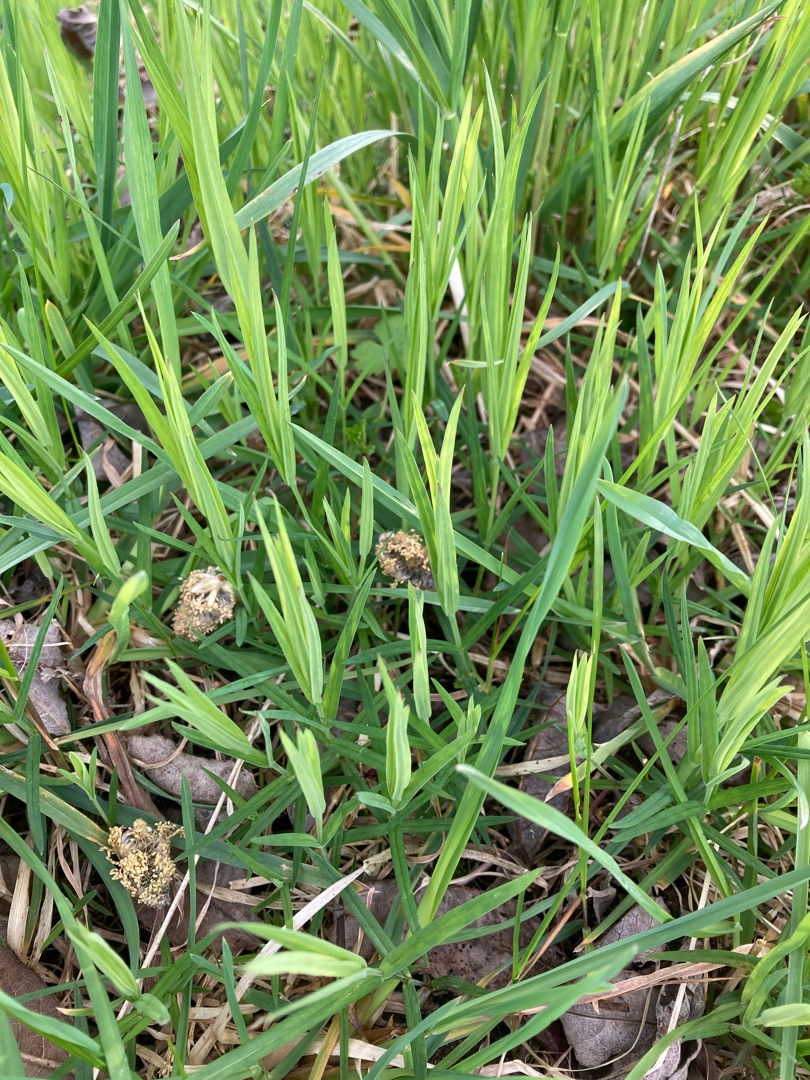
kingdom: Plantae
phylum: Tracheophyta
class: Magnoliopsida
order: Caryophyllales
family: Caryophyllaceae
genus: Rabelera
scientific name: Rabelera holostea
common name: Stor fladstjerne
